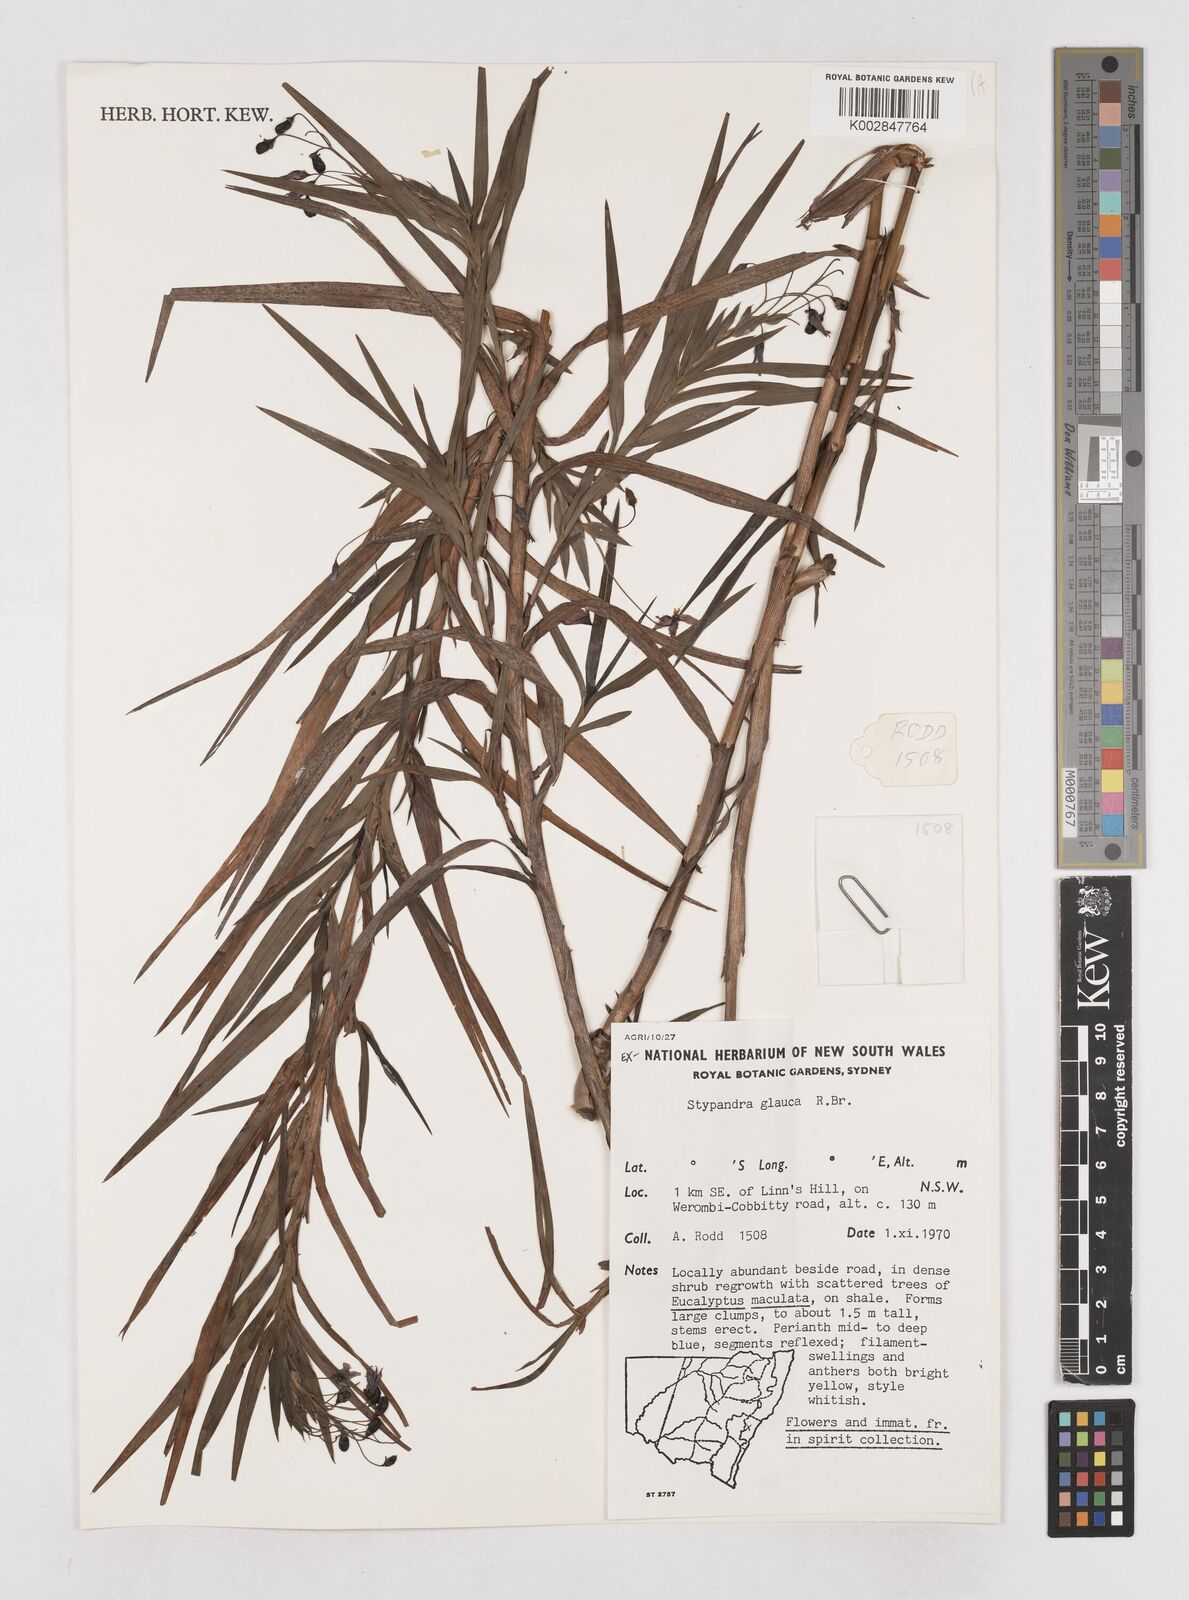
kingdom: Plantae
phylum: Tracheophyta
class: Liliopsida
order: Asparagales
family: Asphodelaceae
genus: Stypandra
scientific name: Stypandra glauca
